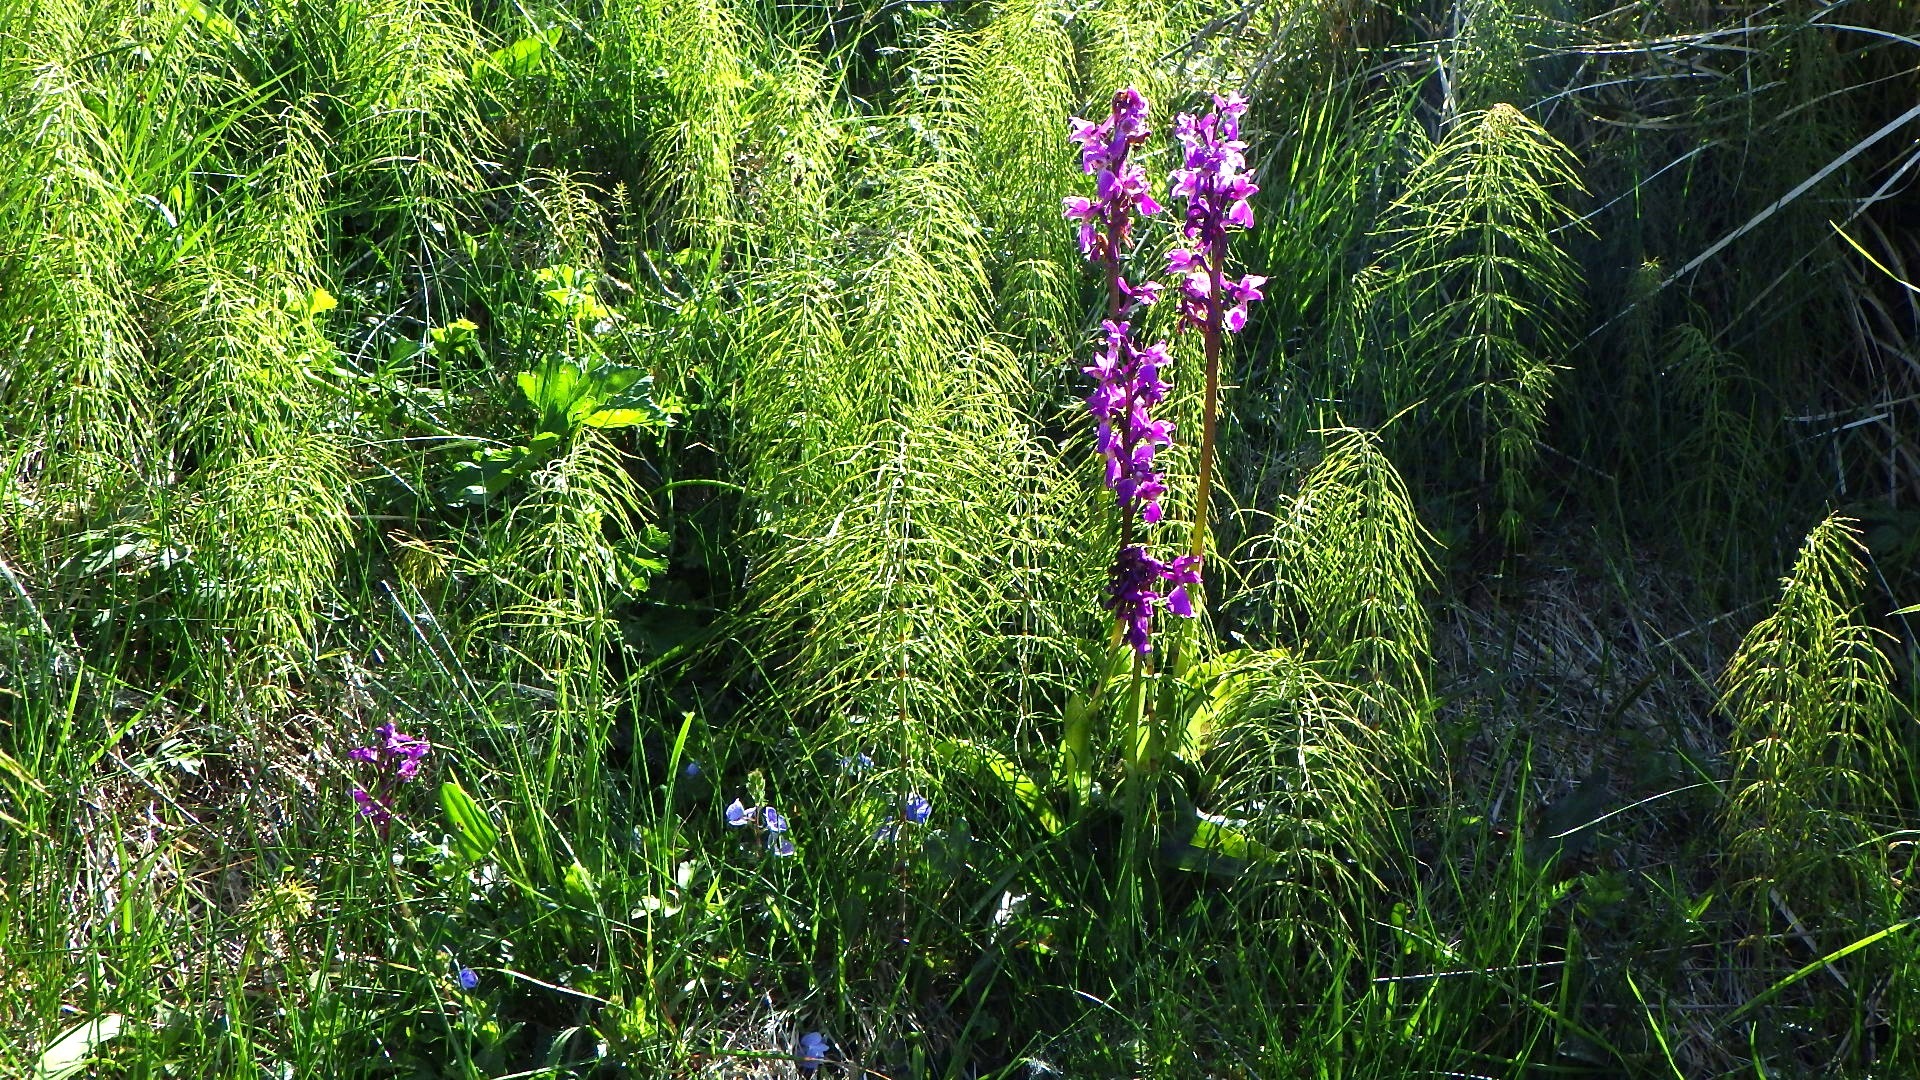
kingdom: Plantae
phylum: Tracheophyta
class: Liliopsida
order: Asparagales
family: Orchidaceae
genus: Orchis
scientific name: Orchis mascula
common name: Tyndakset gøgeurt
